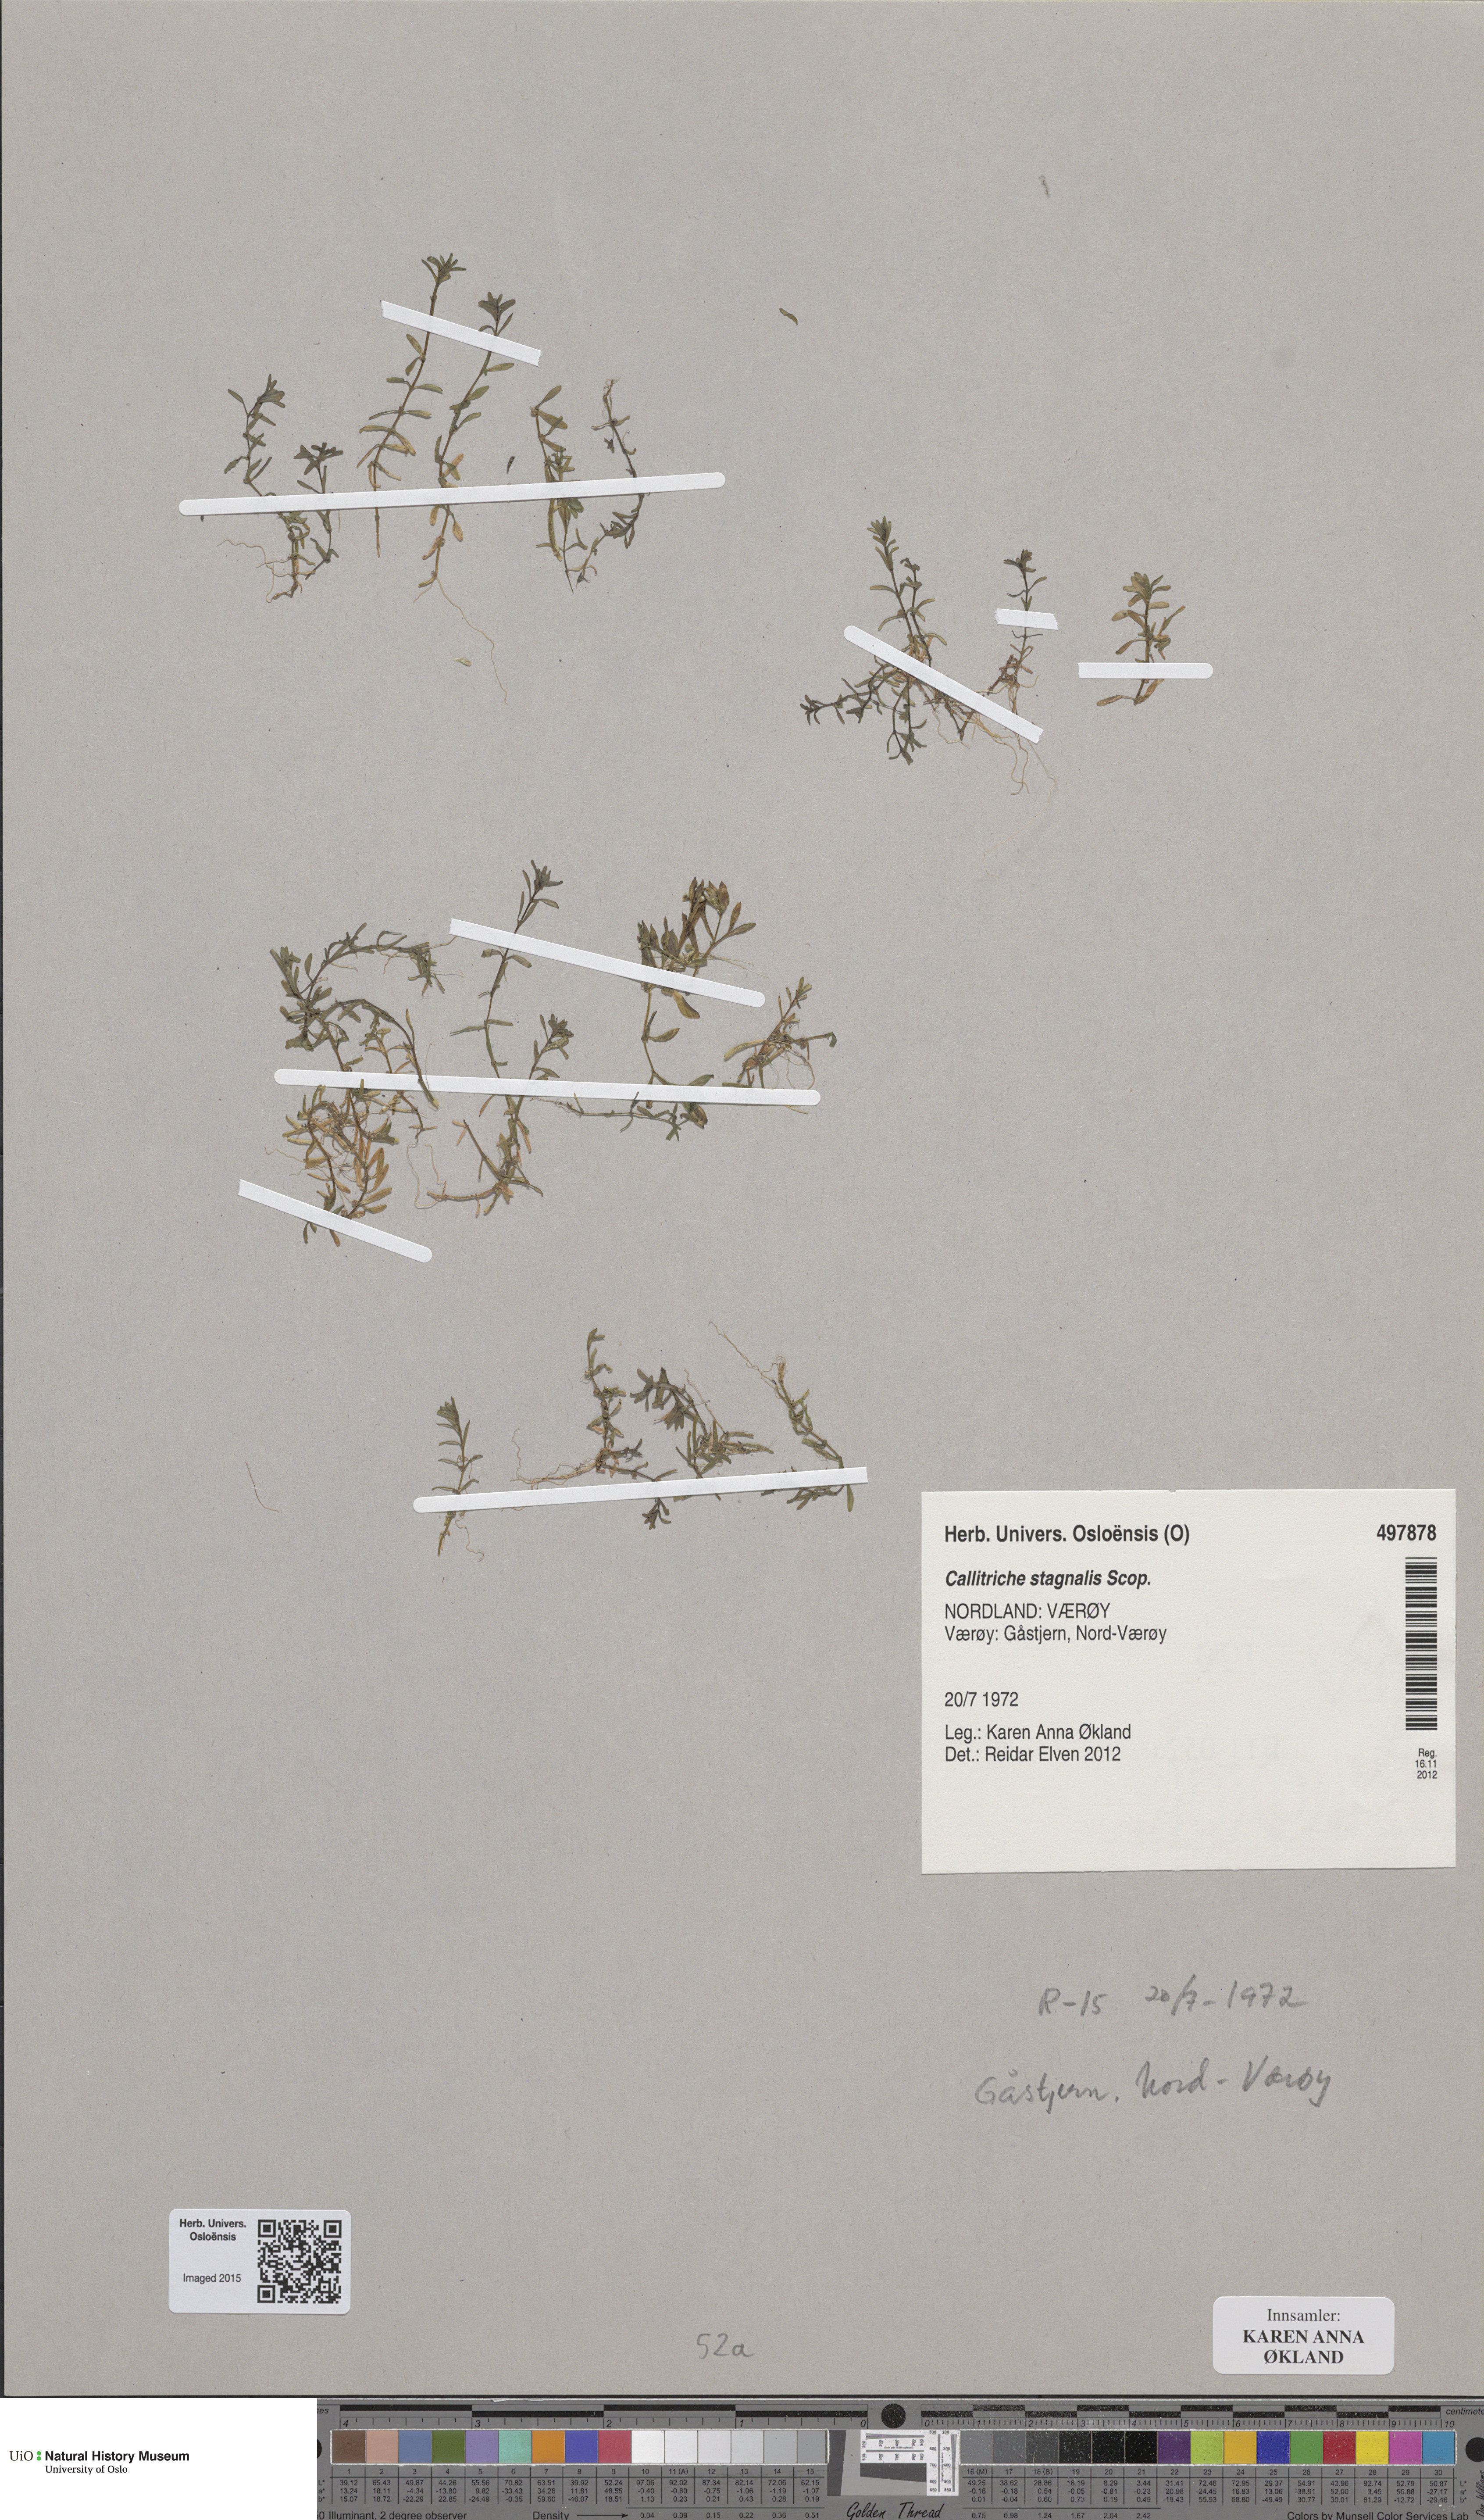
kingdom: Plantae
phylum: Tracheophyta
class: Magnoliopsida
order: Lamiales
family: Plantaginaceae
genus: Callitriche
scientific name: Callitriche stagnalis
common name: Common water-starwort
